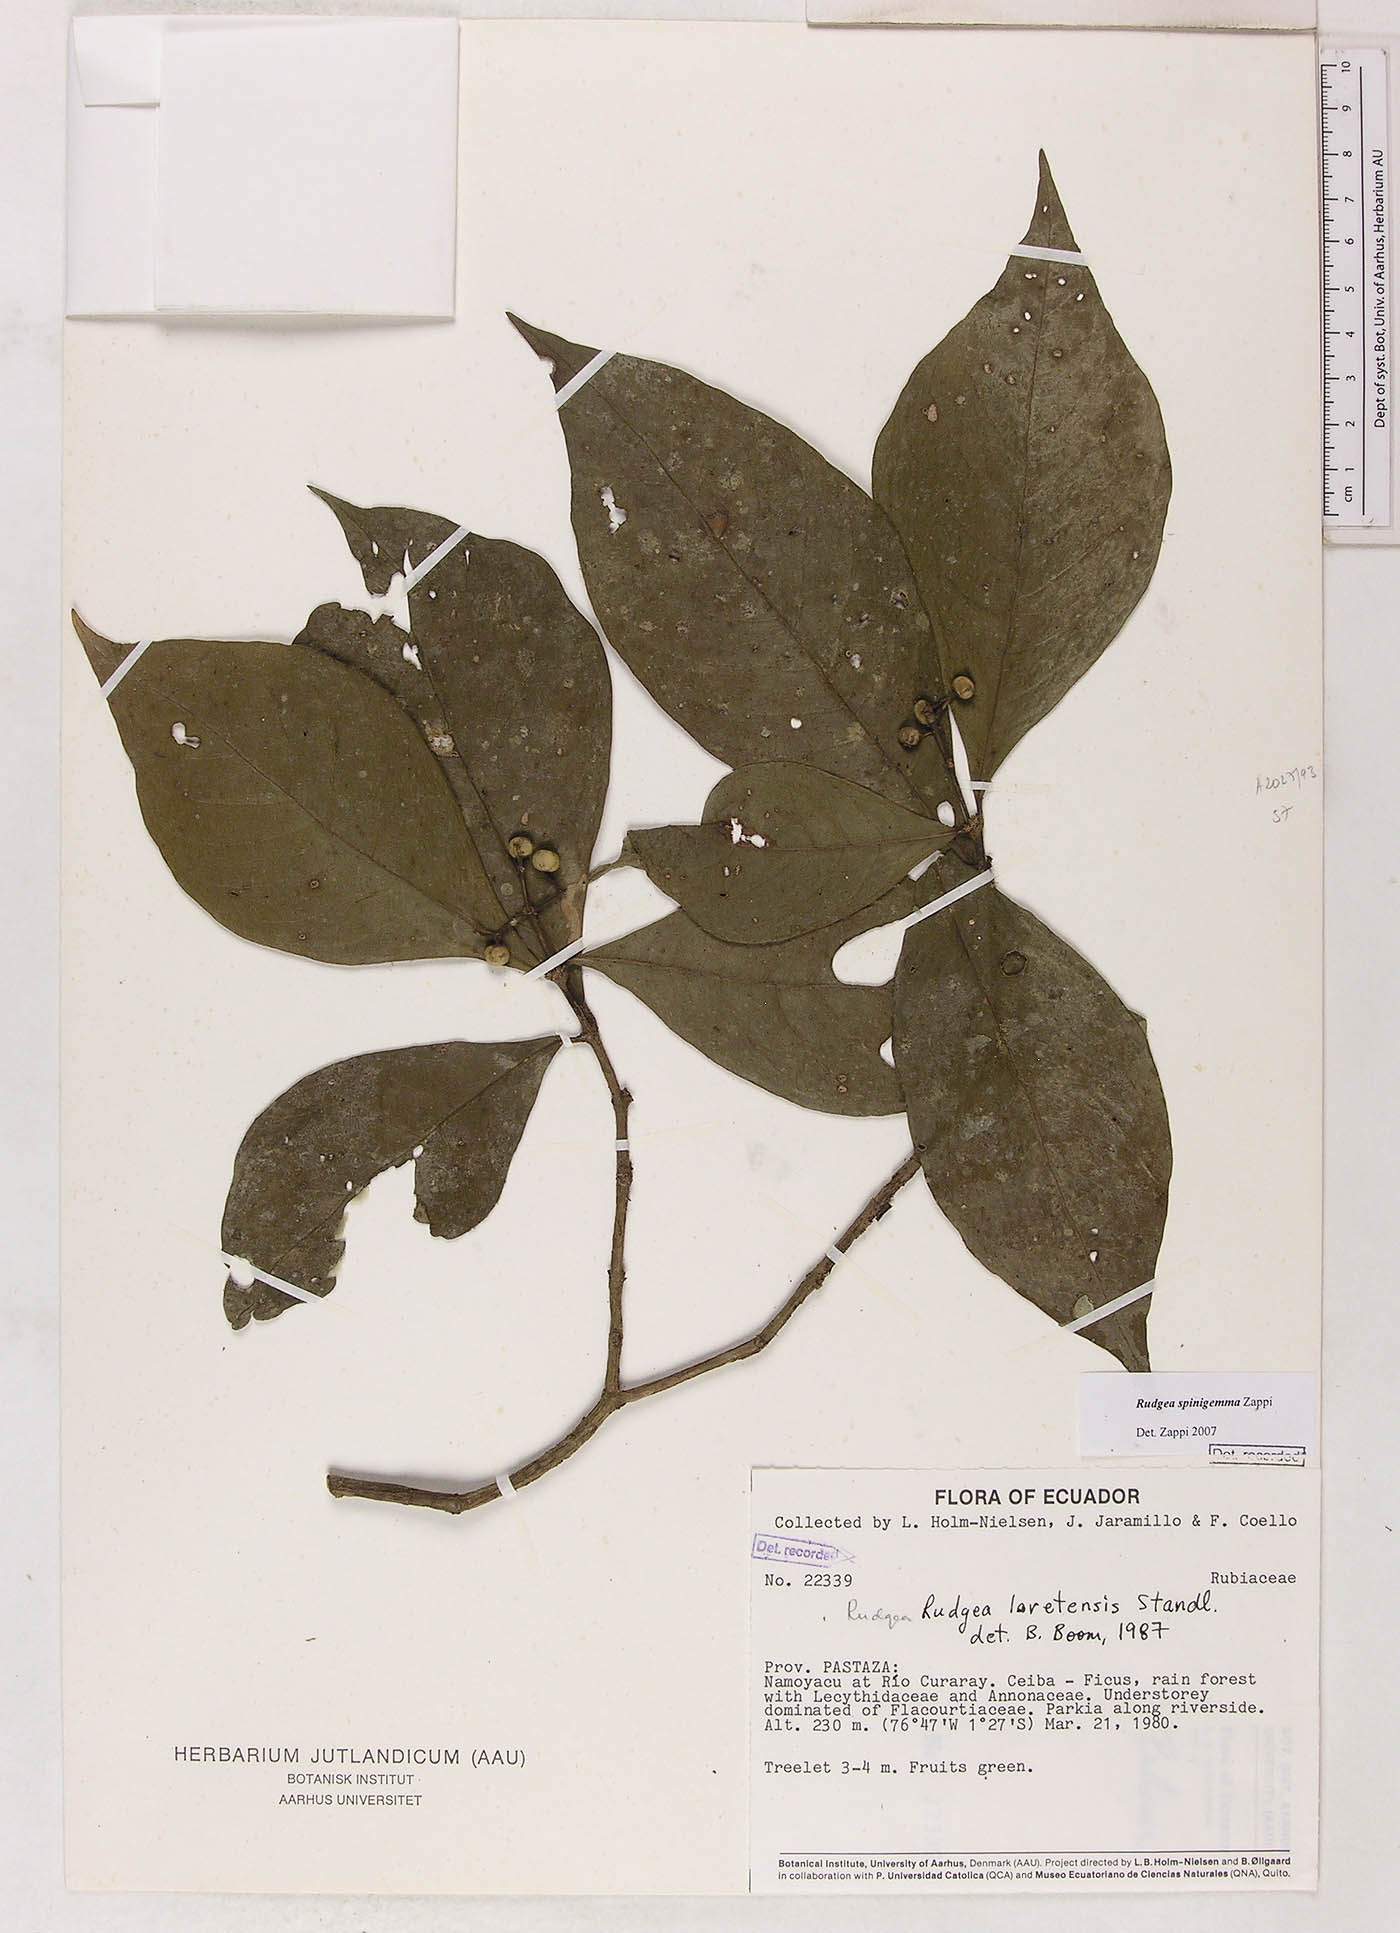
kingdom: Plantae
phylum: Tracheophyta
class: Magnoliopsida
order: Gentianales
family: Rubiaceae
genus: Rudgea
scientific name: Rudgea spinigemma
